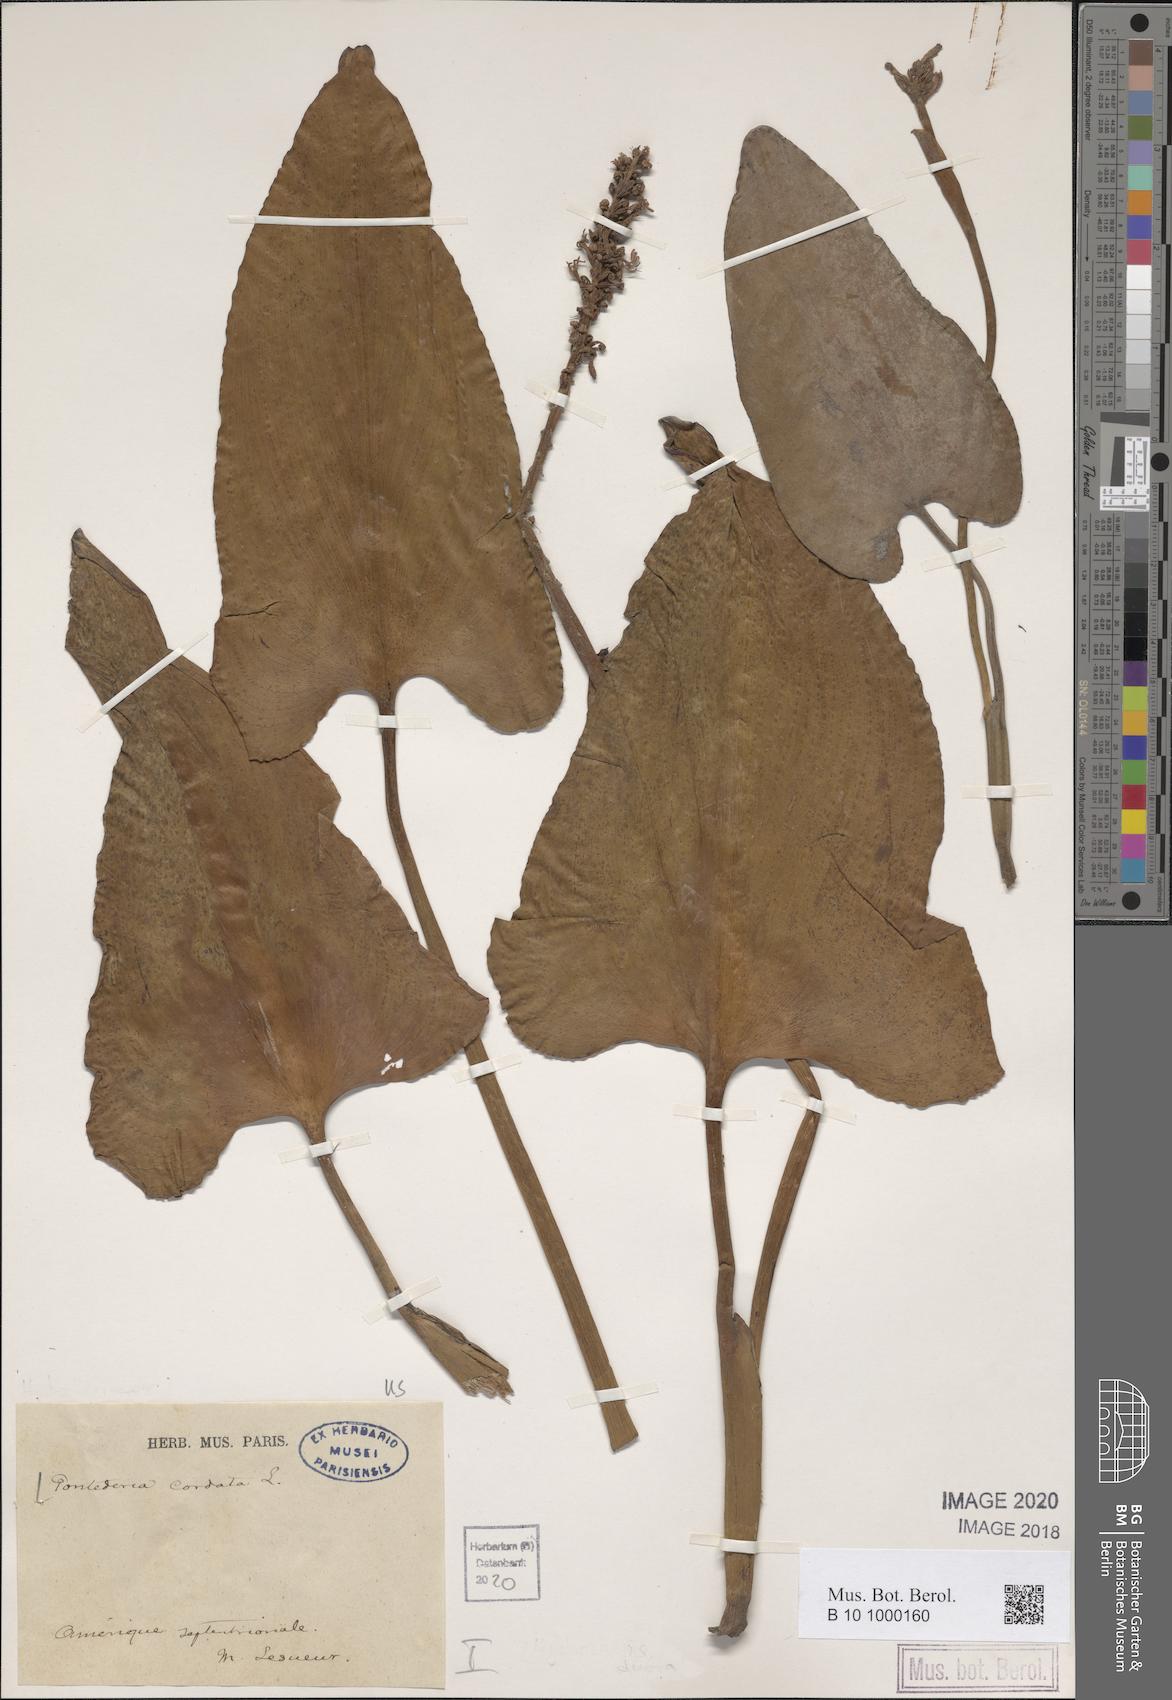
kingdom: Plantae
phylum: Tracheophyta
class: Liliopsida
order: Commelinales
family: Pontederiaceae
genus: Pontederia
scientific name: Pontederia cordata
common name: Pickerelweed
